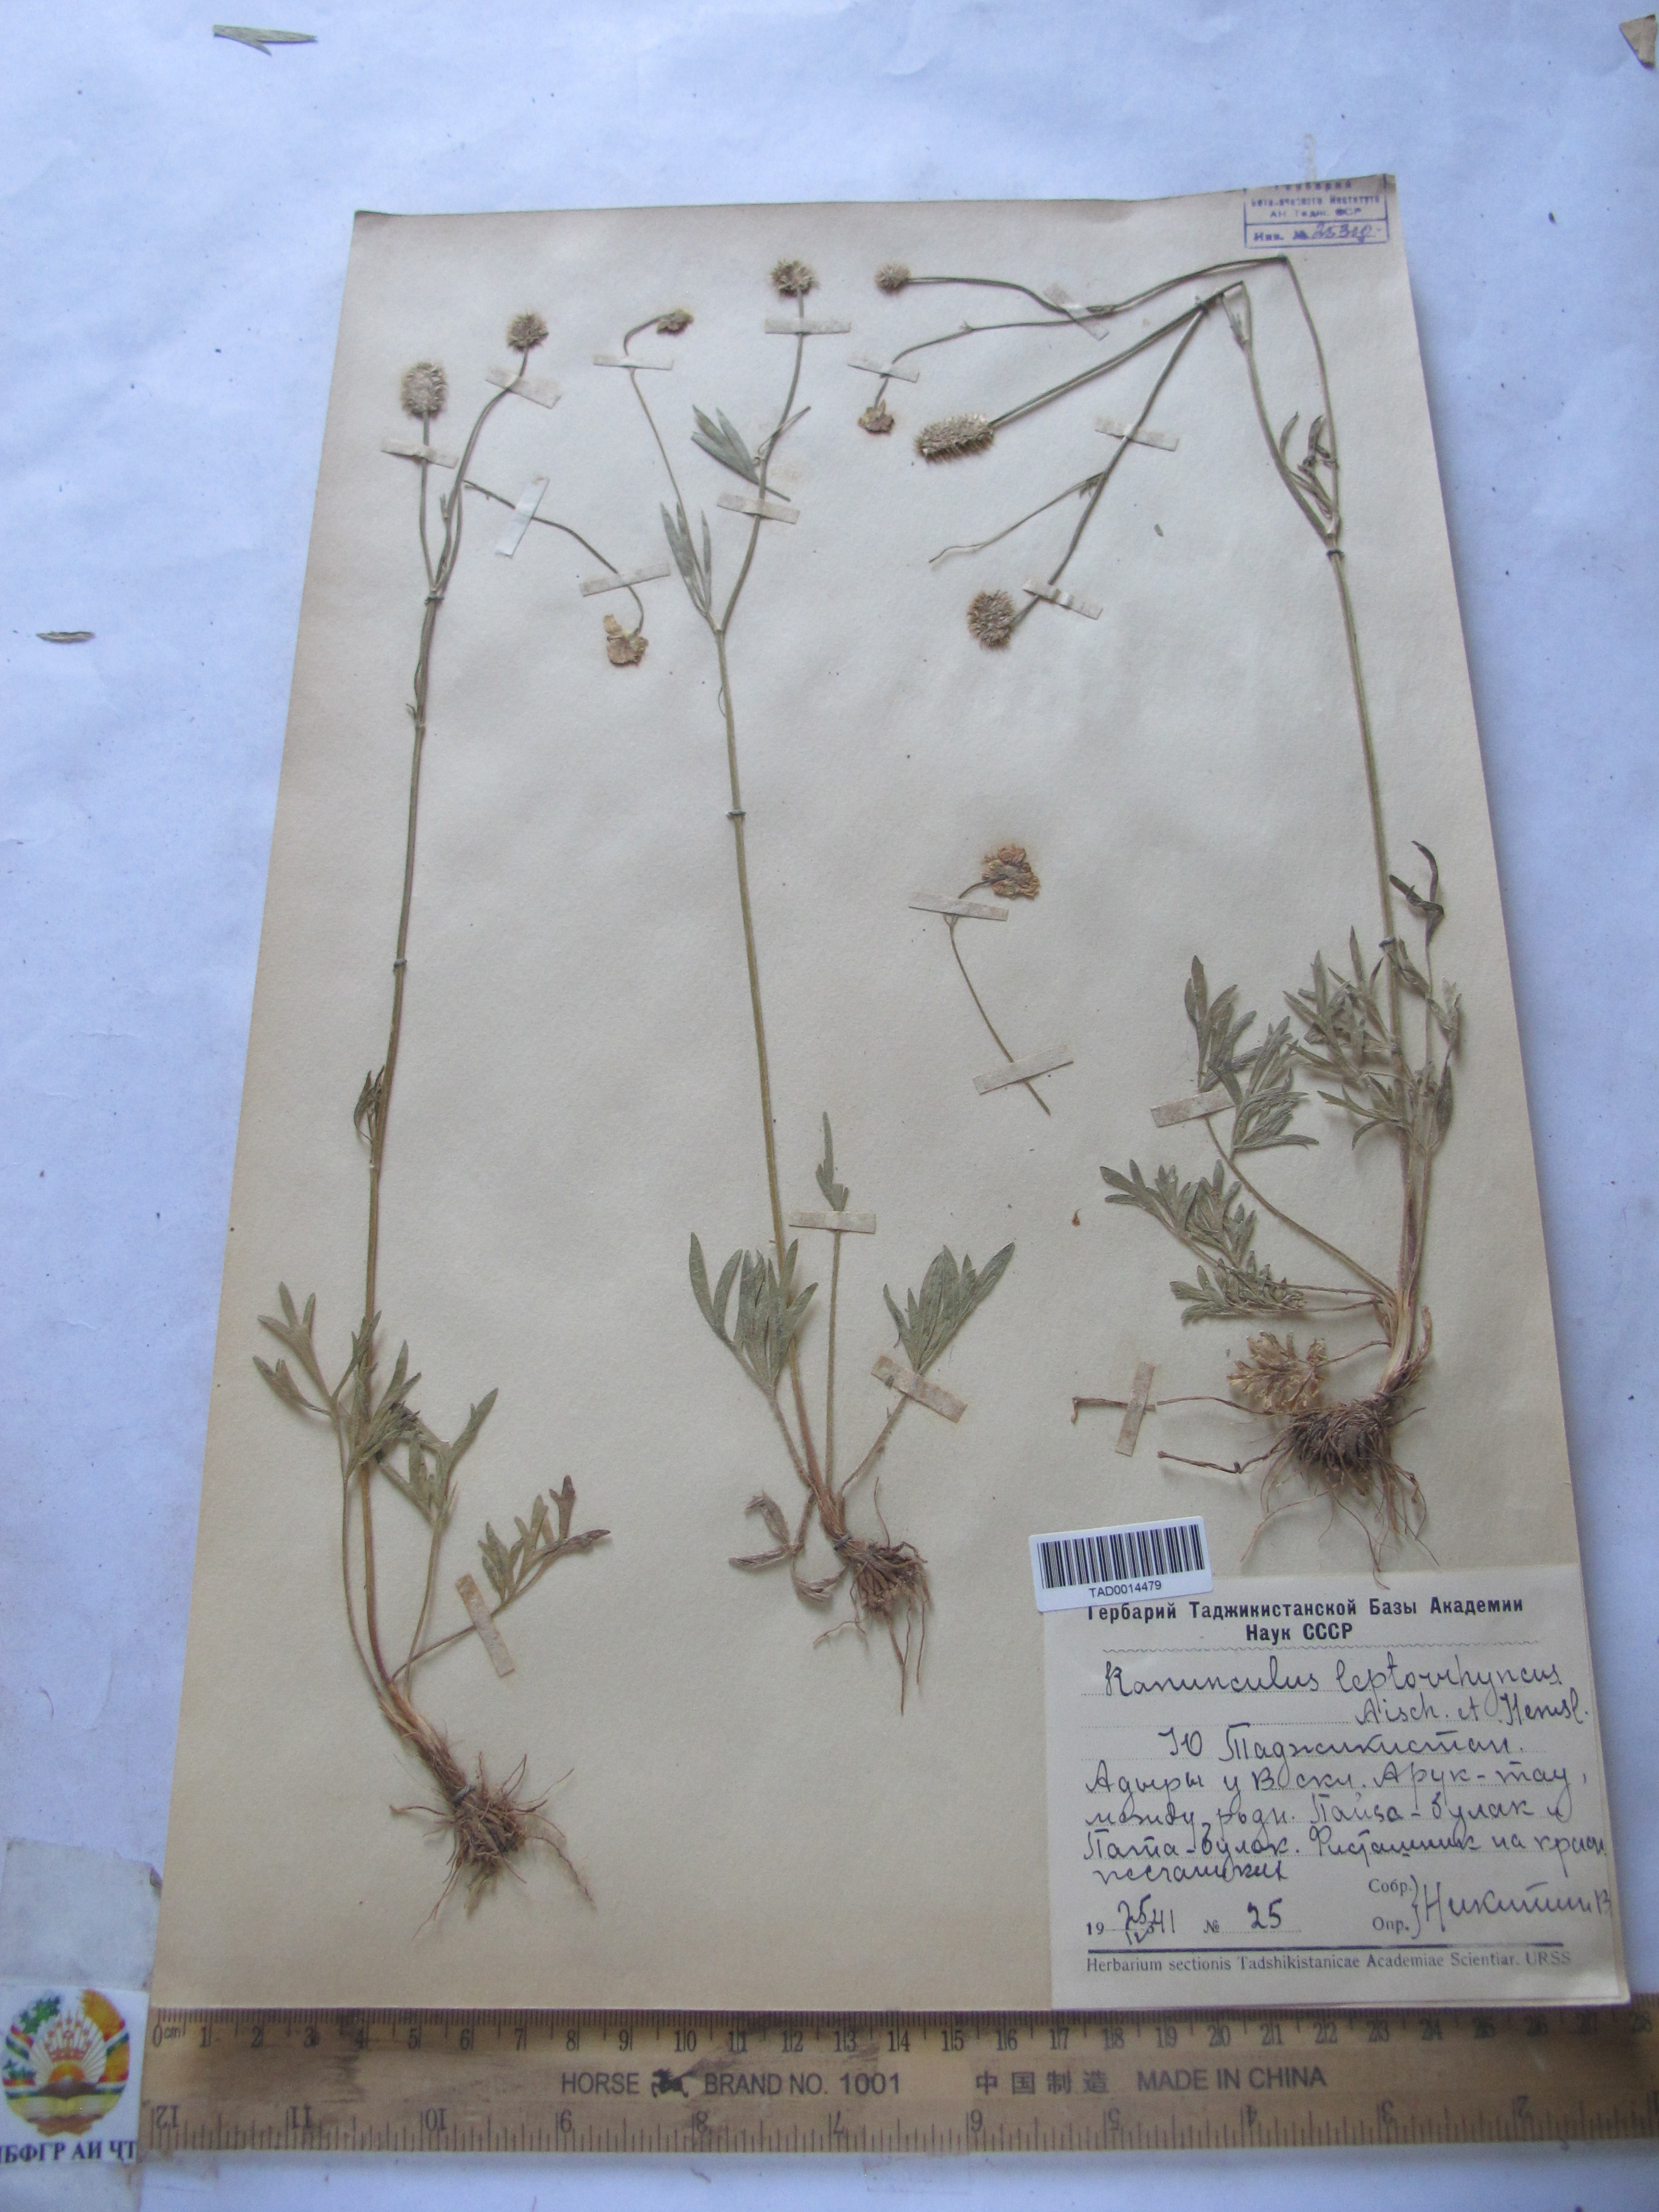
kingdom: Plantae
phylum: Tracheophyta
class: Magnoliopsida
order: Ranunculales
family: Ranunculaceae
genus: Ranunculus
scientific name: Ranunculus leptorrhynchus
